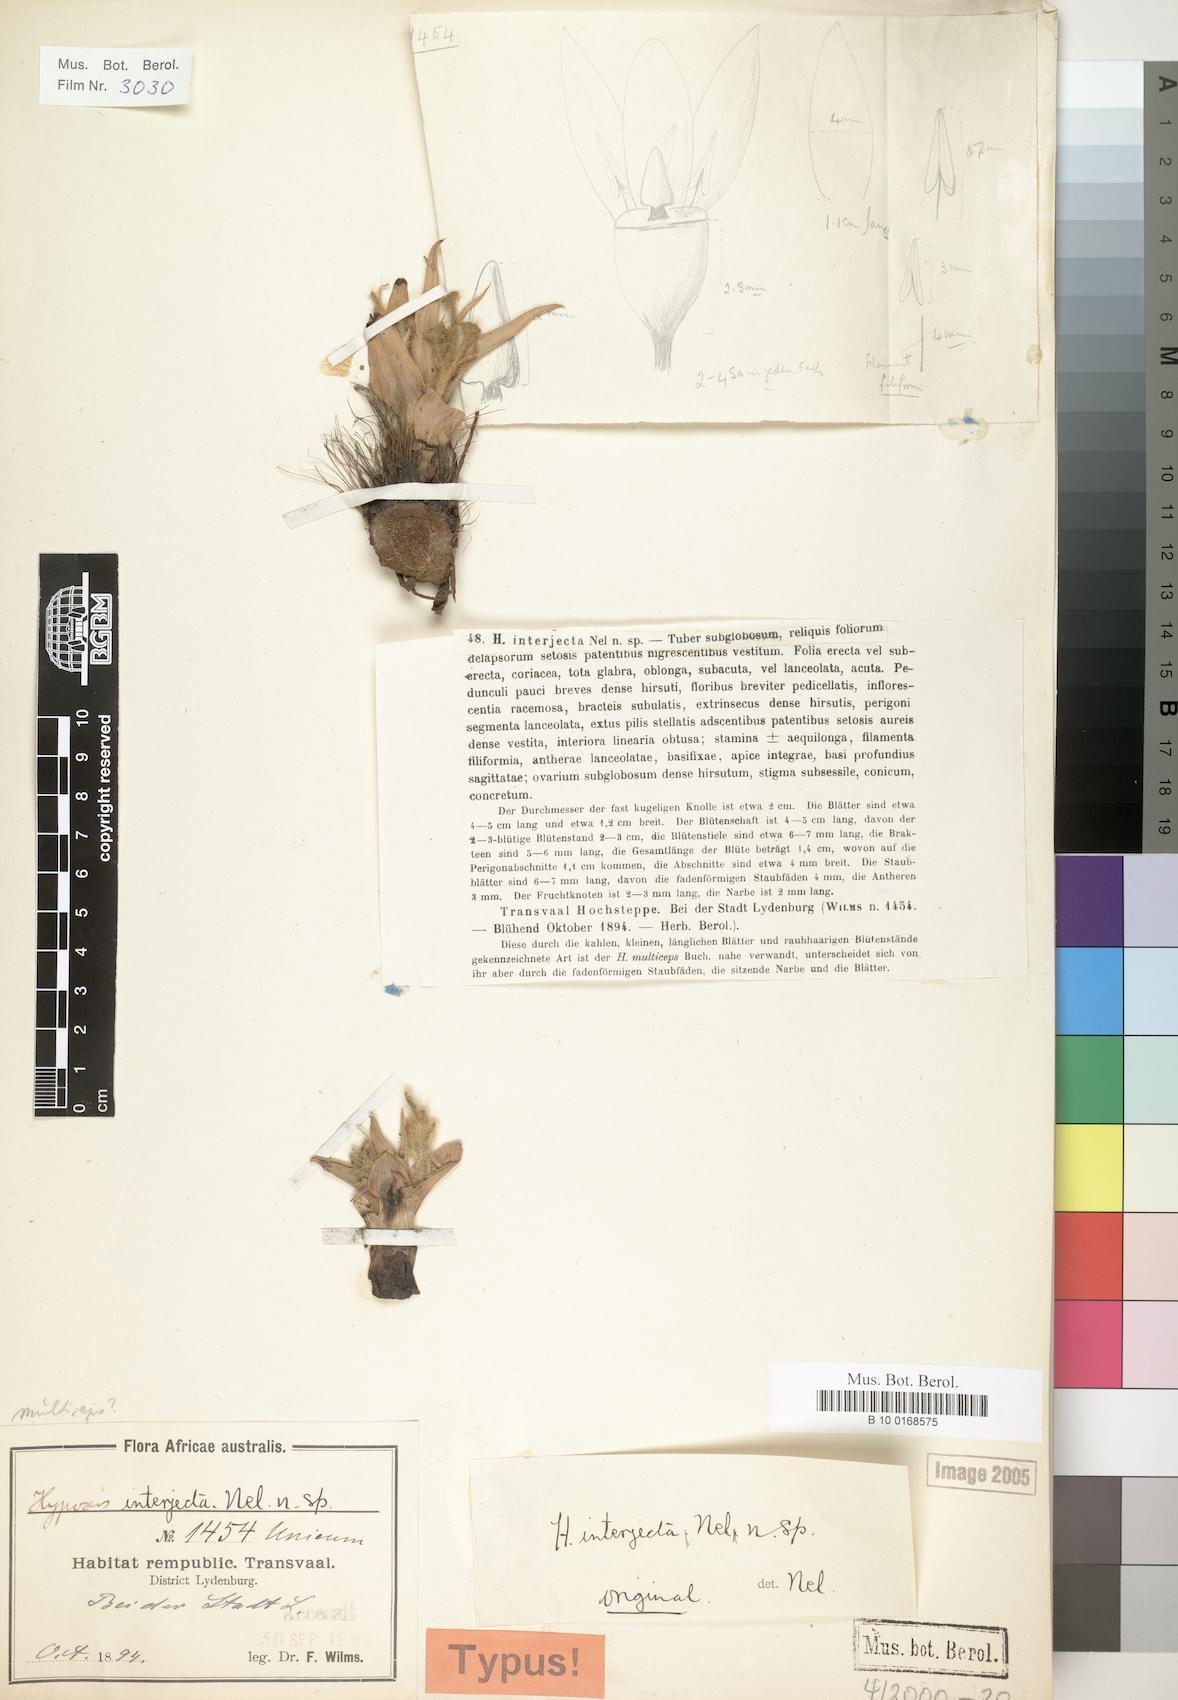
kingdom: Plantae
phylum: Tracheophyta
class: Liliopsida
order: Asparagales
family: Hypoxidaceae
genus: Hypoxis
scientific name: Hypoxis interjecta
